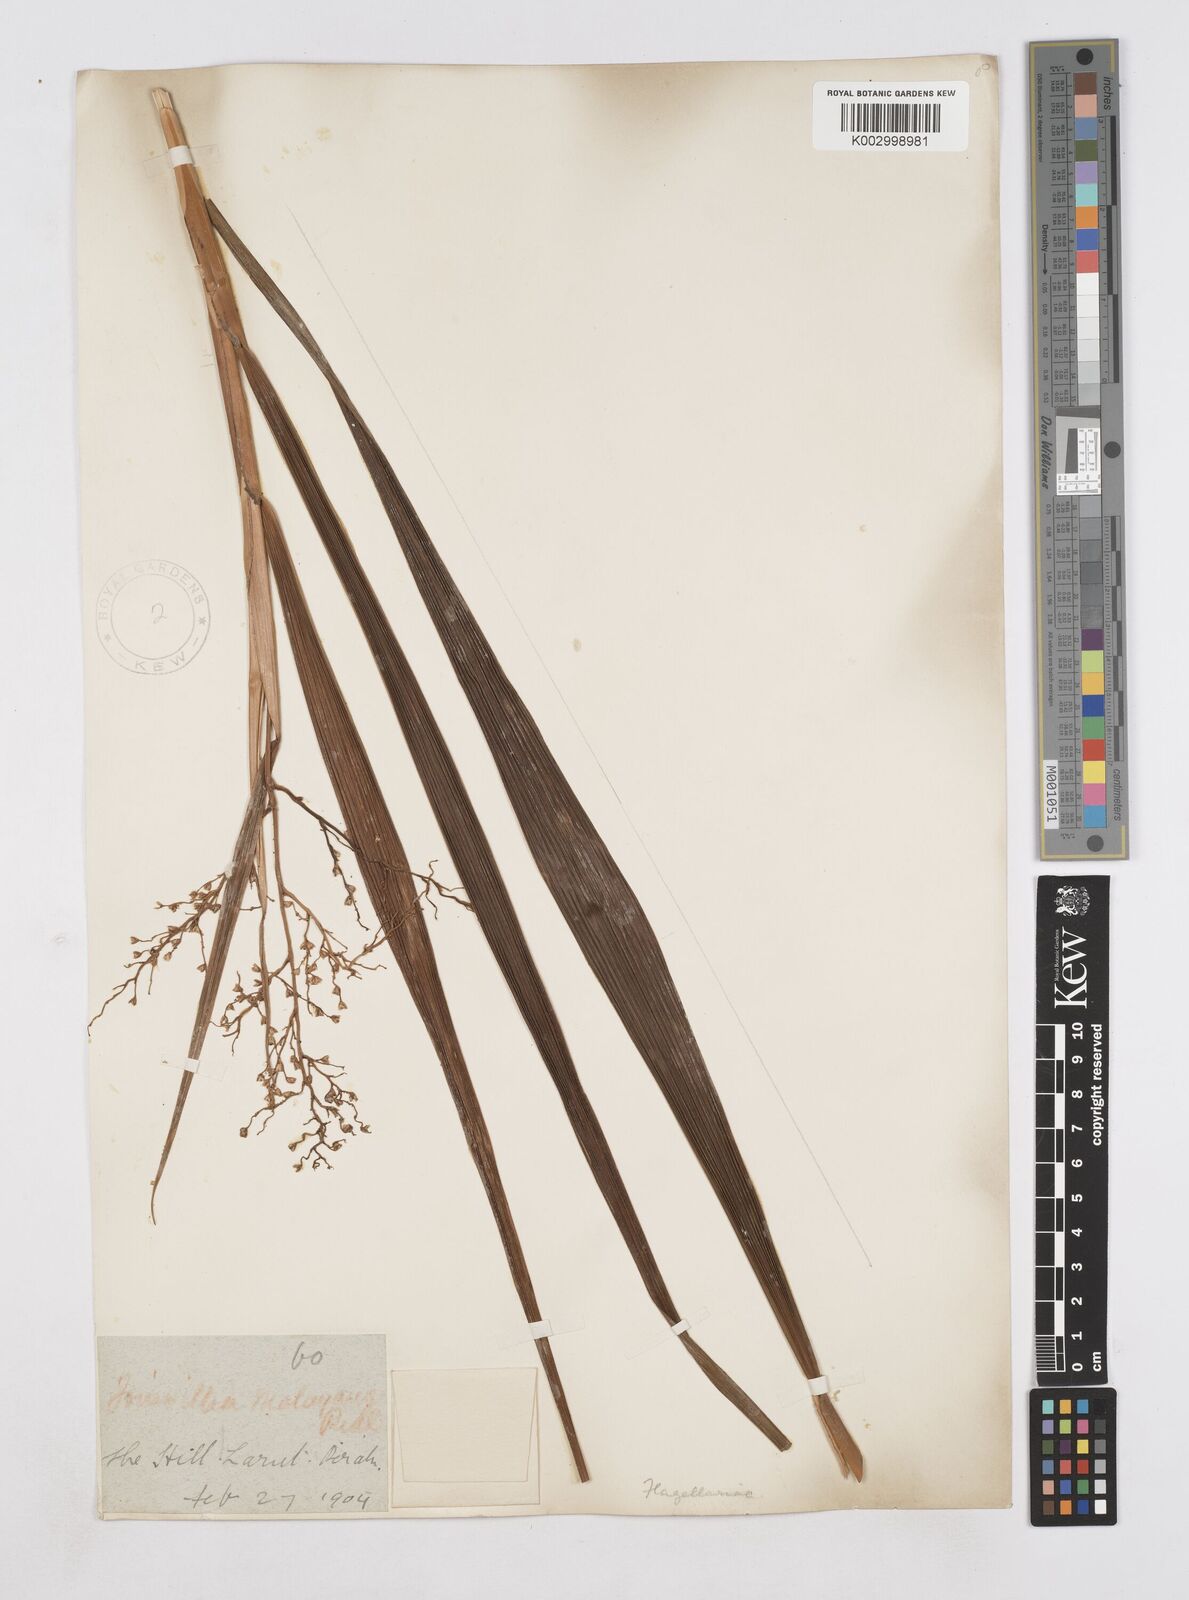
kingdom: Plantae
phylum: Tracheophyta
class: Liliopsida
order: Poales
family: Joinvilleaceae
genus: Joinvillea
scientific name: Joinvillea borneensis
